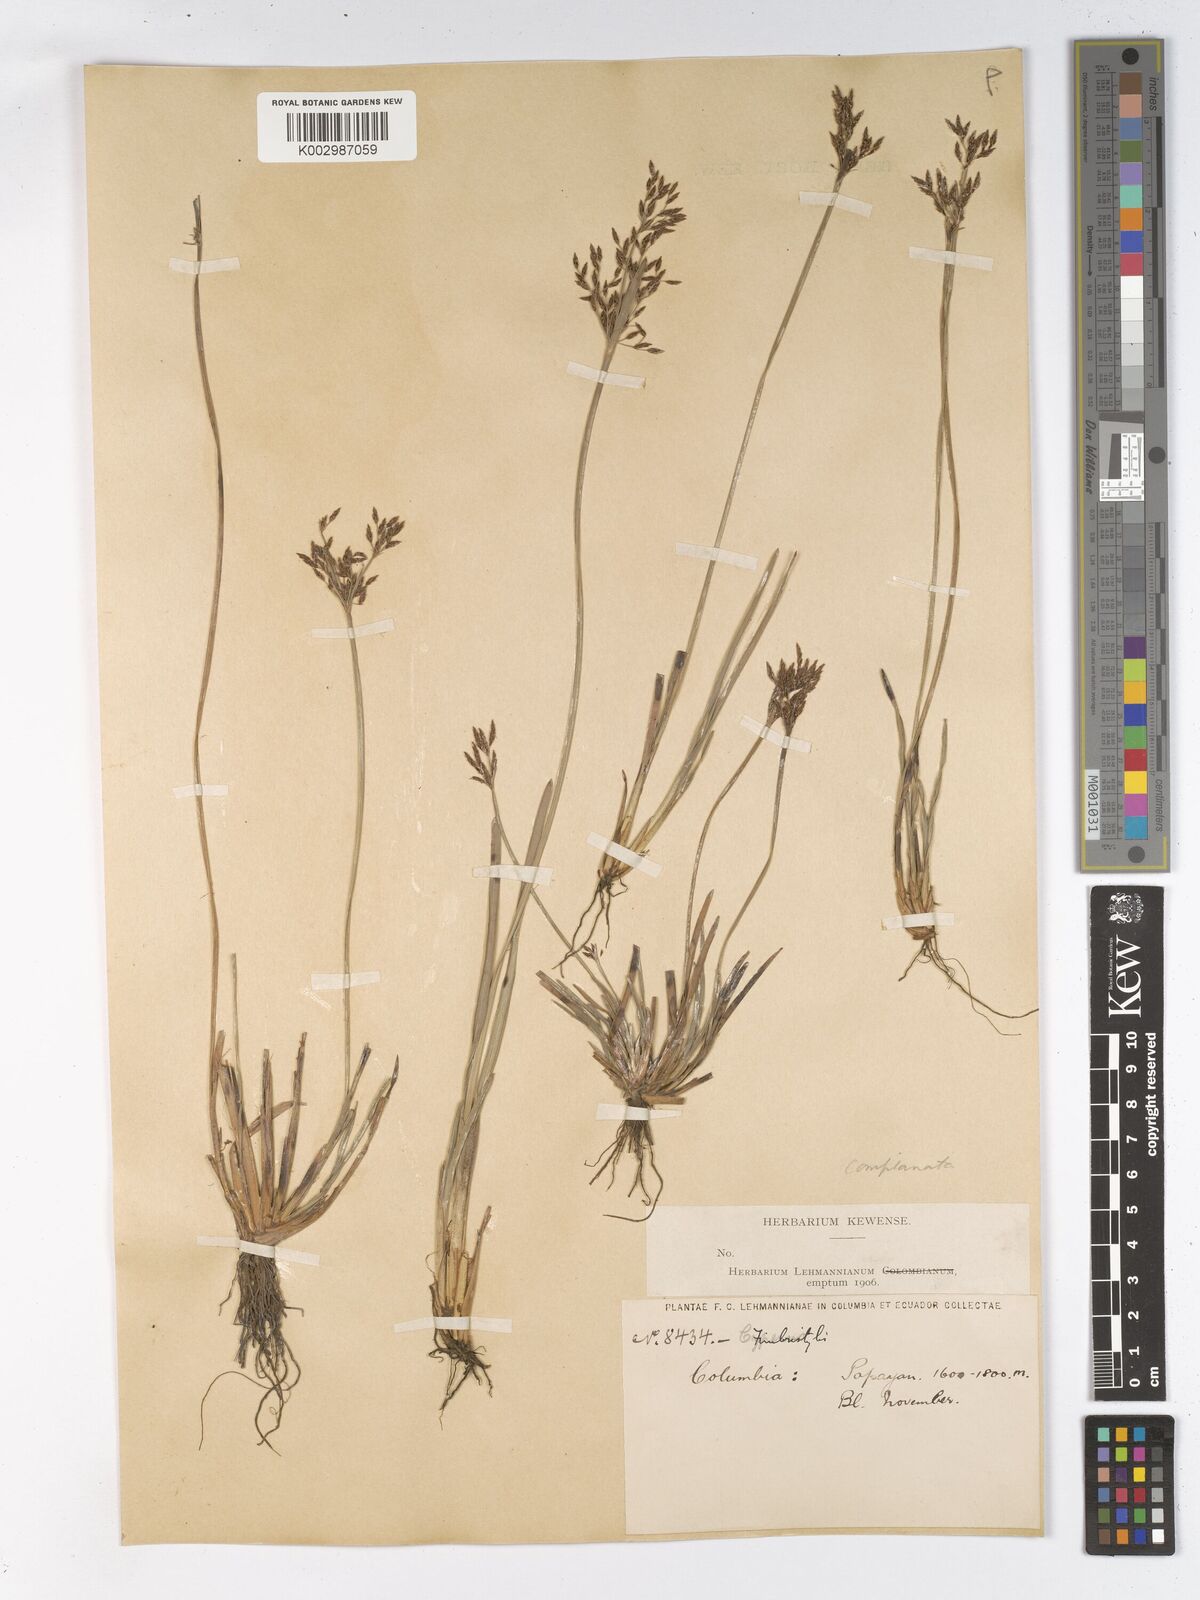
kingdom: Plantae
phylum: Tracheophyta
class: Liliopsida
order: Poales
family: Cyperaceae
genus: Fimbristylis
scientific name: Fimbristylis complanata
